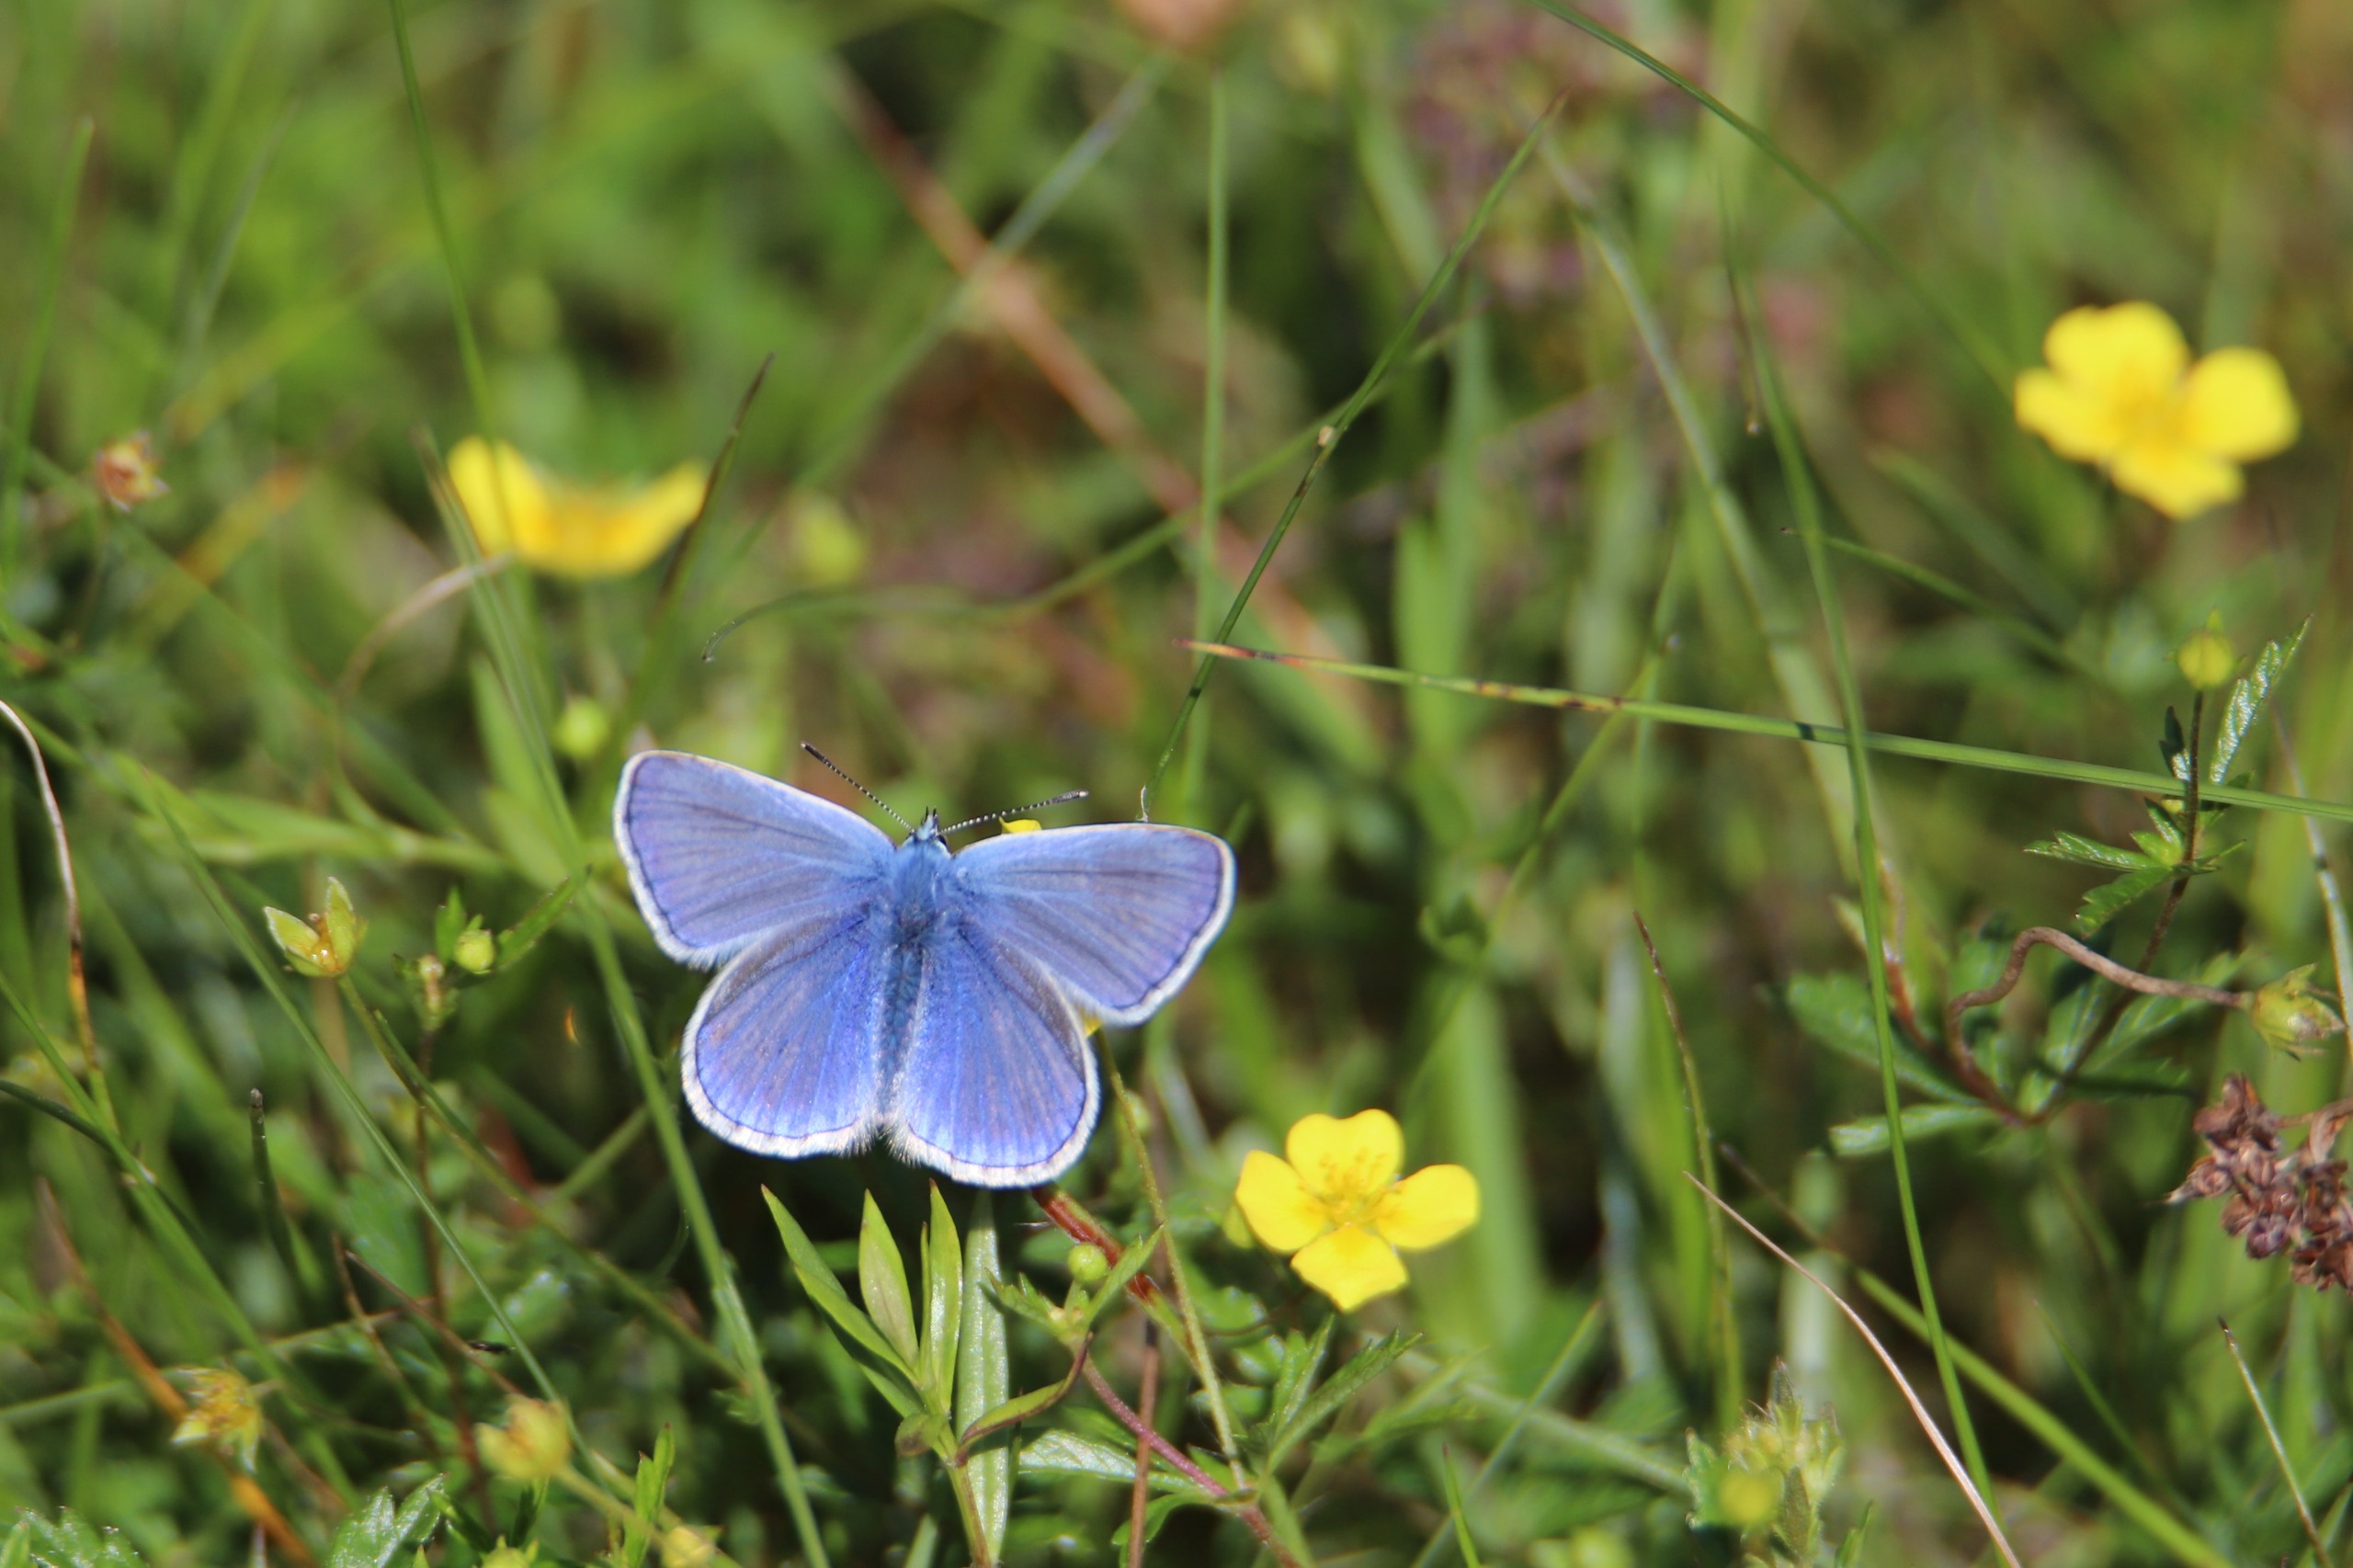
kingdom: Animalia
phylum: Arthropoda
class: Insecta
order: Lepidoptera
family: Lycaenidae
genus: Polyommatus
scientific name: Polyommatus icarus
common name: Almindelig blåfugl
